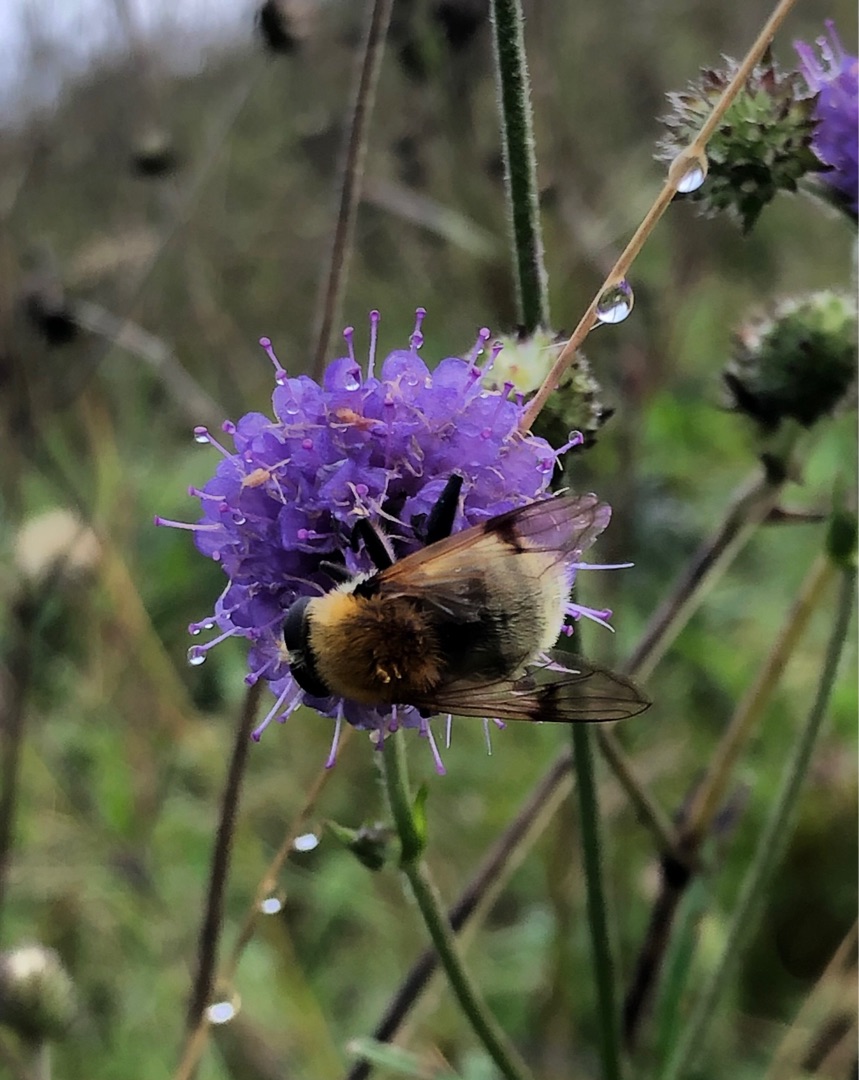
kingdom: Animalia
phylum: Arthropoda
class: Insecta
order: Diptera
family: Syrphidae
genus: Sericomyia
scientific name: Sericomyia superbiens
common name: Brun bjørnesvirreflue
